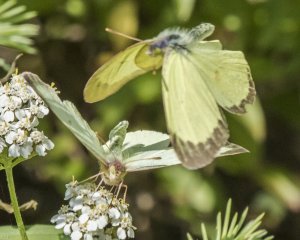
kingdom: Animalia
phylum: Arthropoda
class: Insecta
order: Lepidoptera
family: Pieridae
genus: Colias
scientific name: Colias interior
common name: Pink-edged Sulphur
